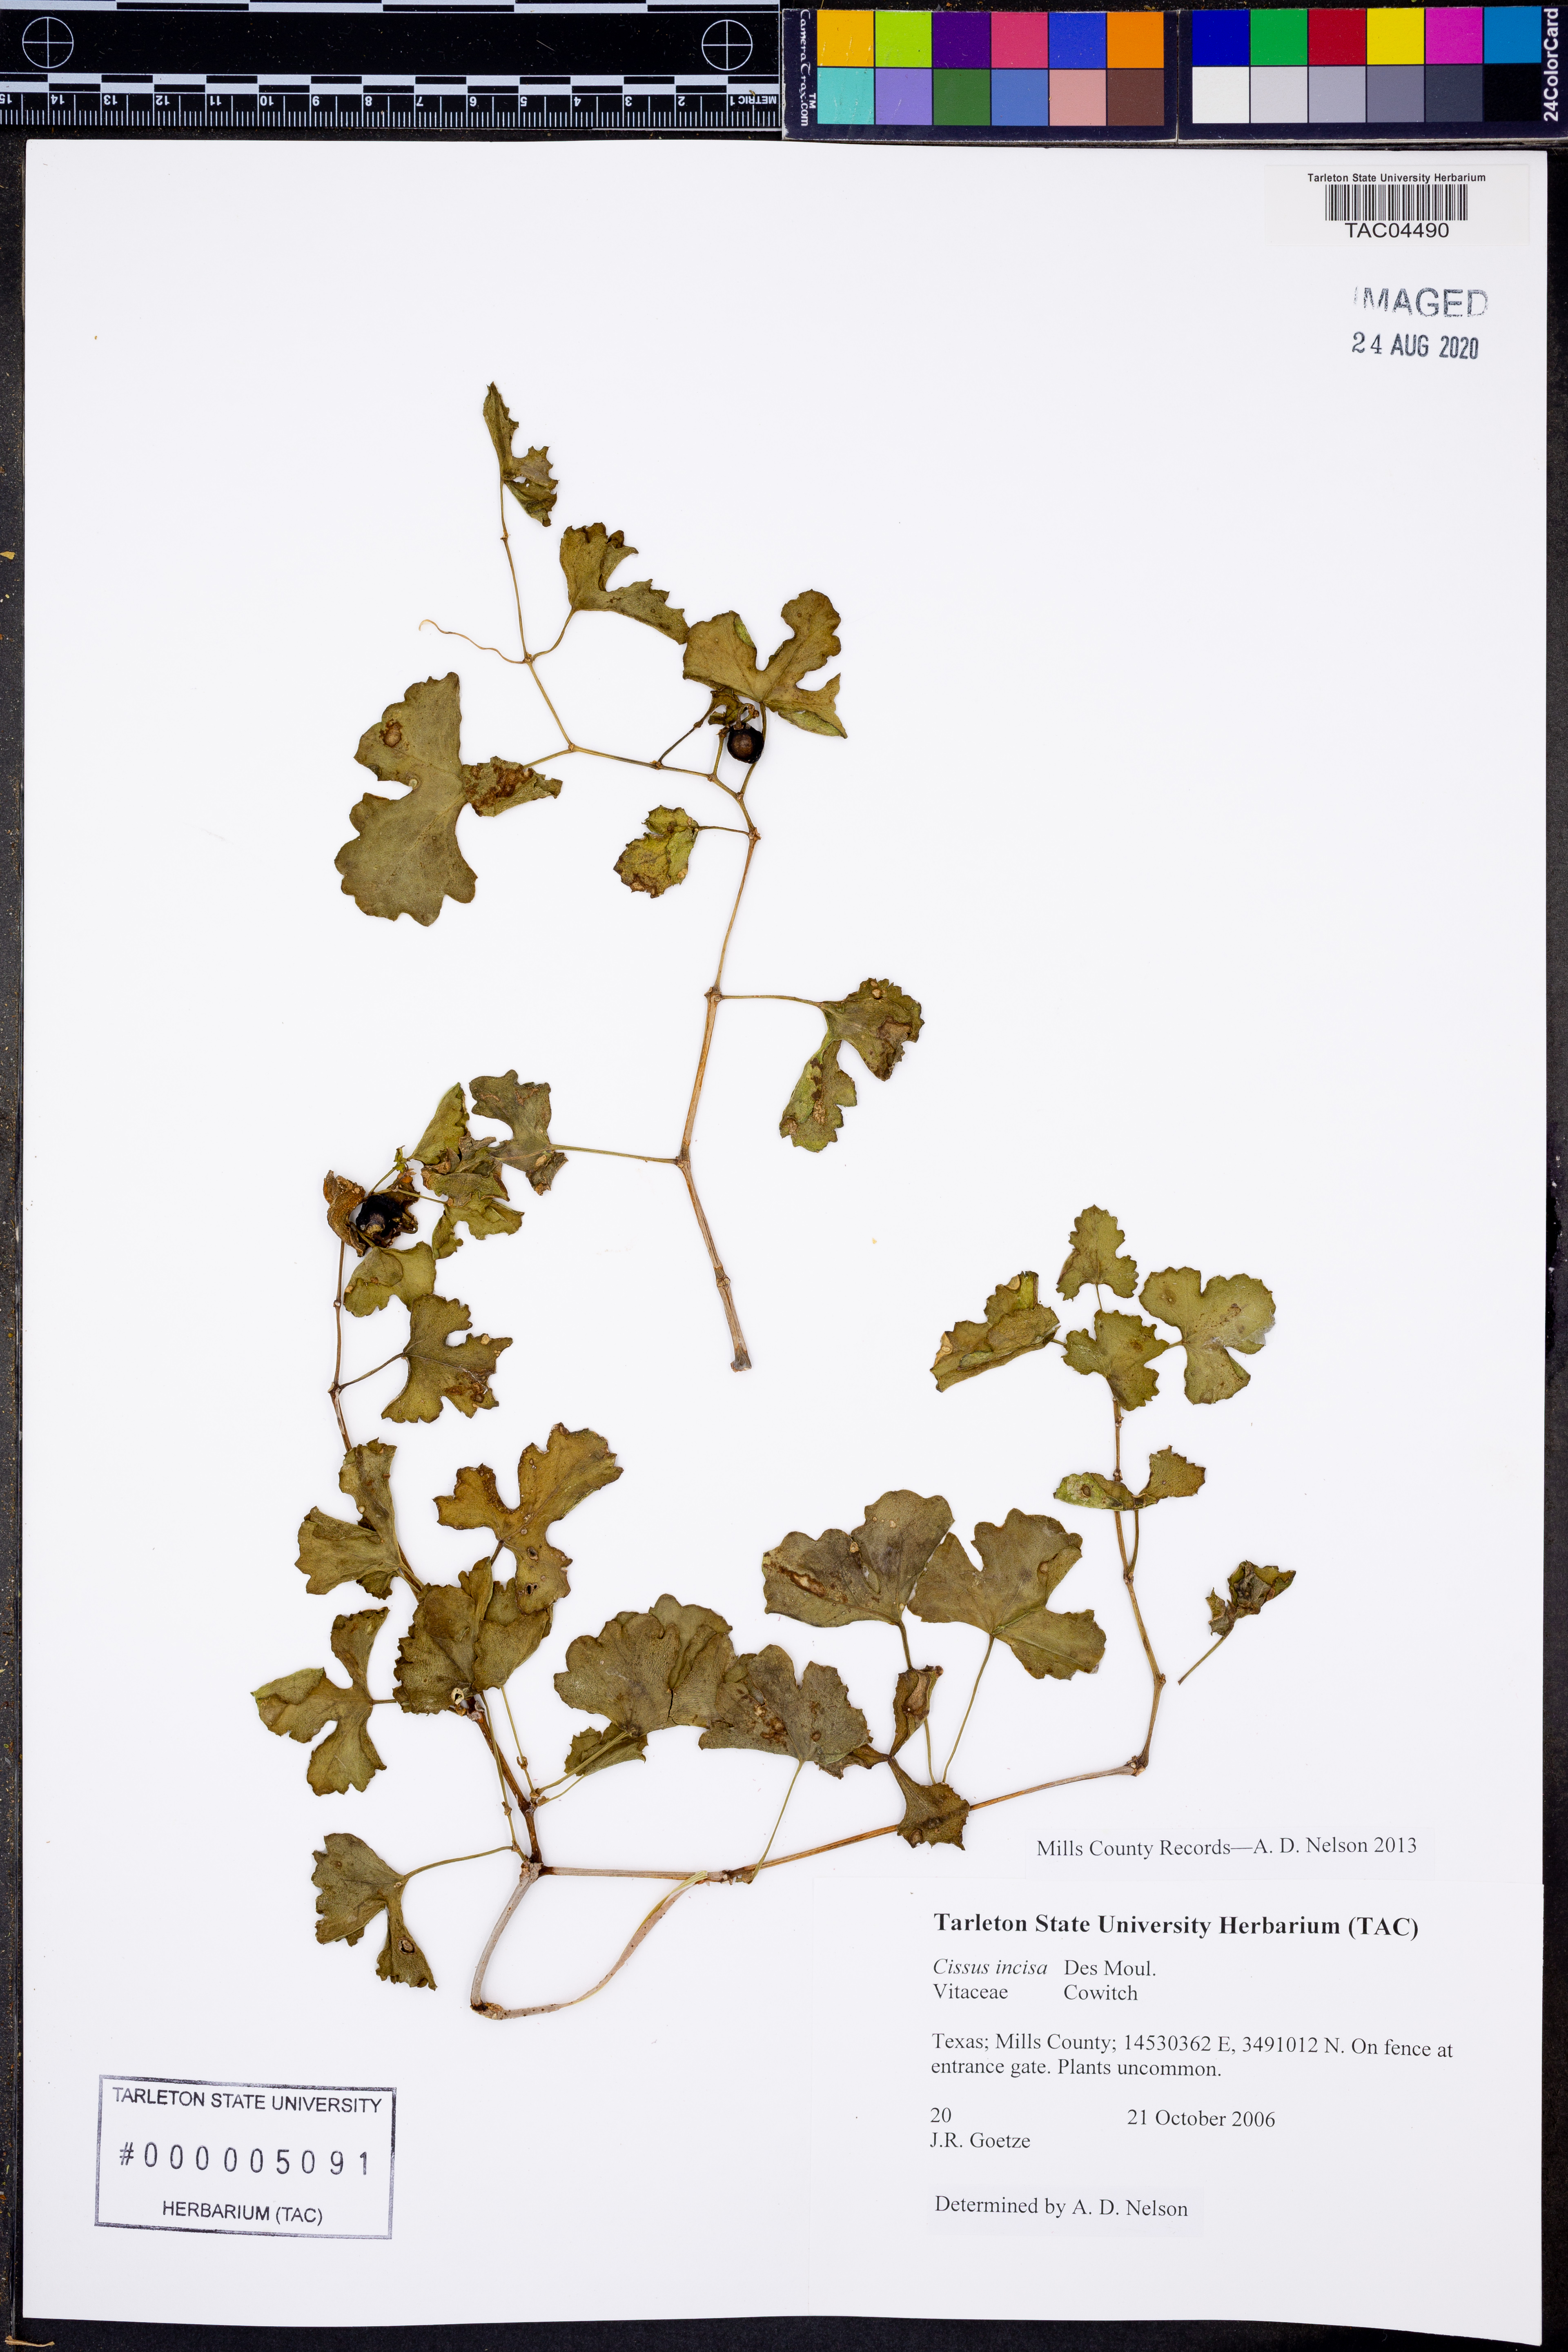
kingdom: Plantae
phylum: Tracheophyta
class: Magnoliopsida
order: Vitales
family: Vitaceae
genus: Cissus
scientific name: Cissus trifoliata
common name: Vine-sorrel
